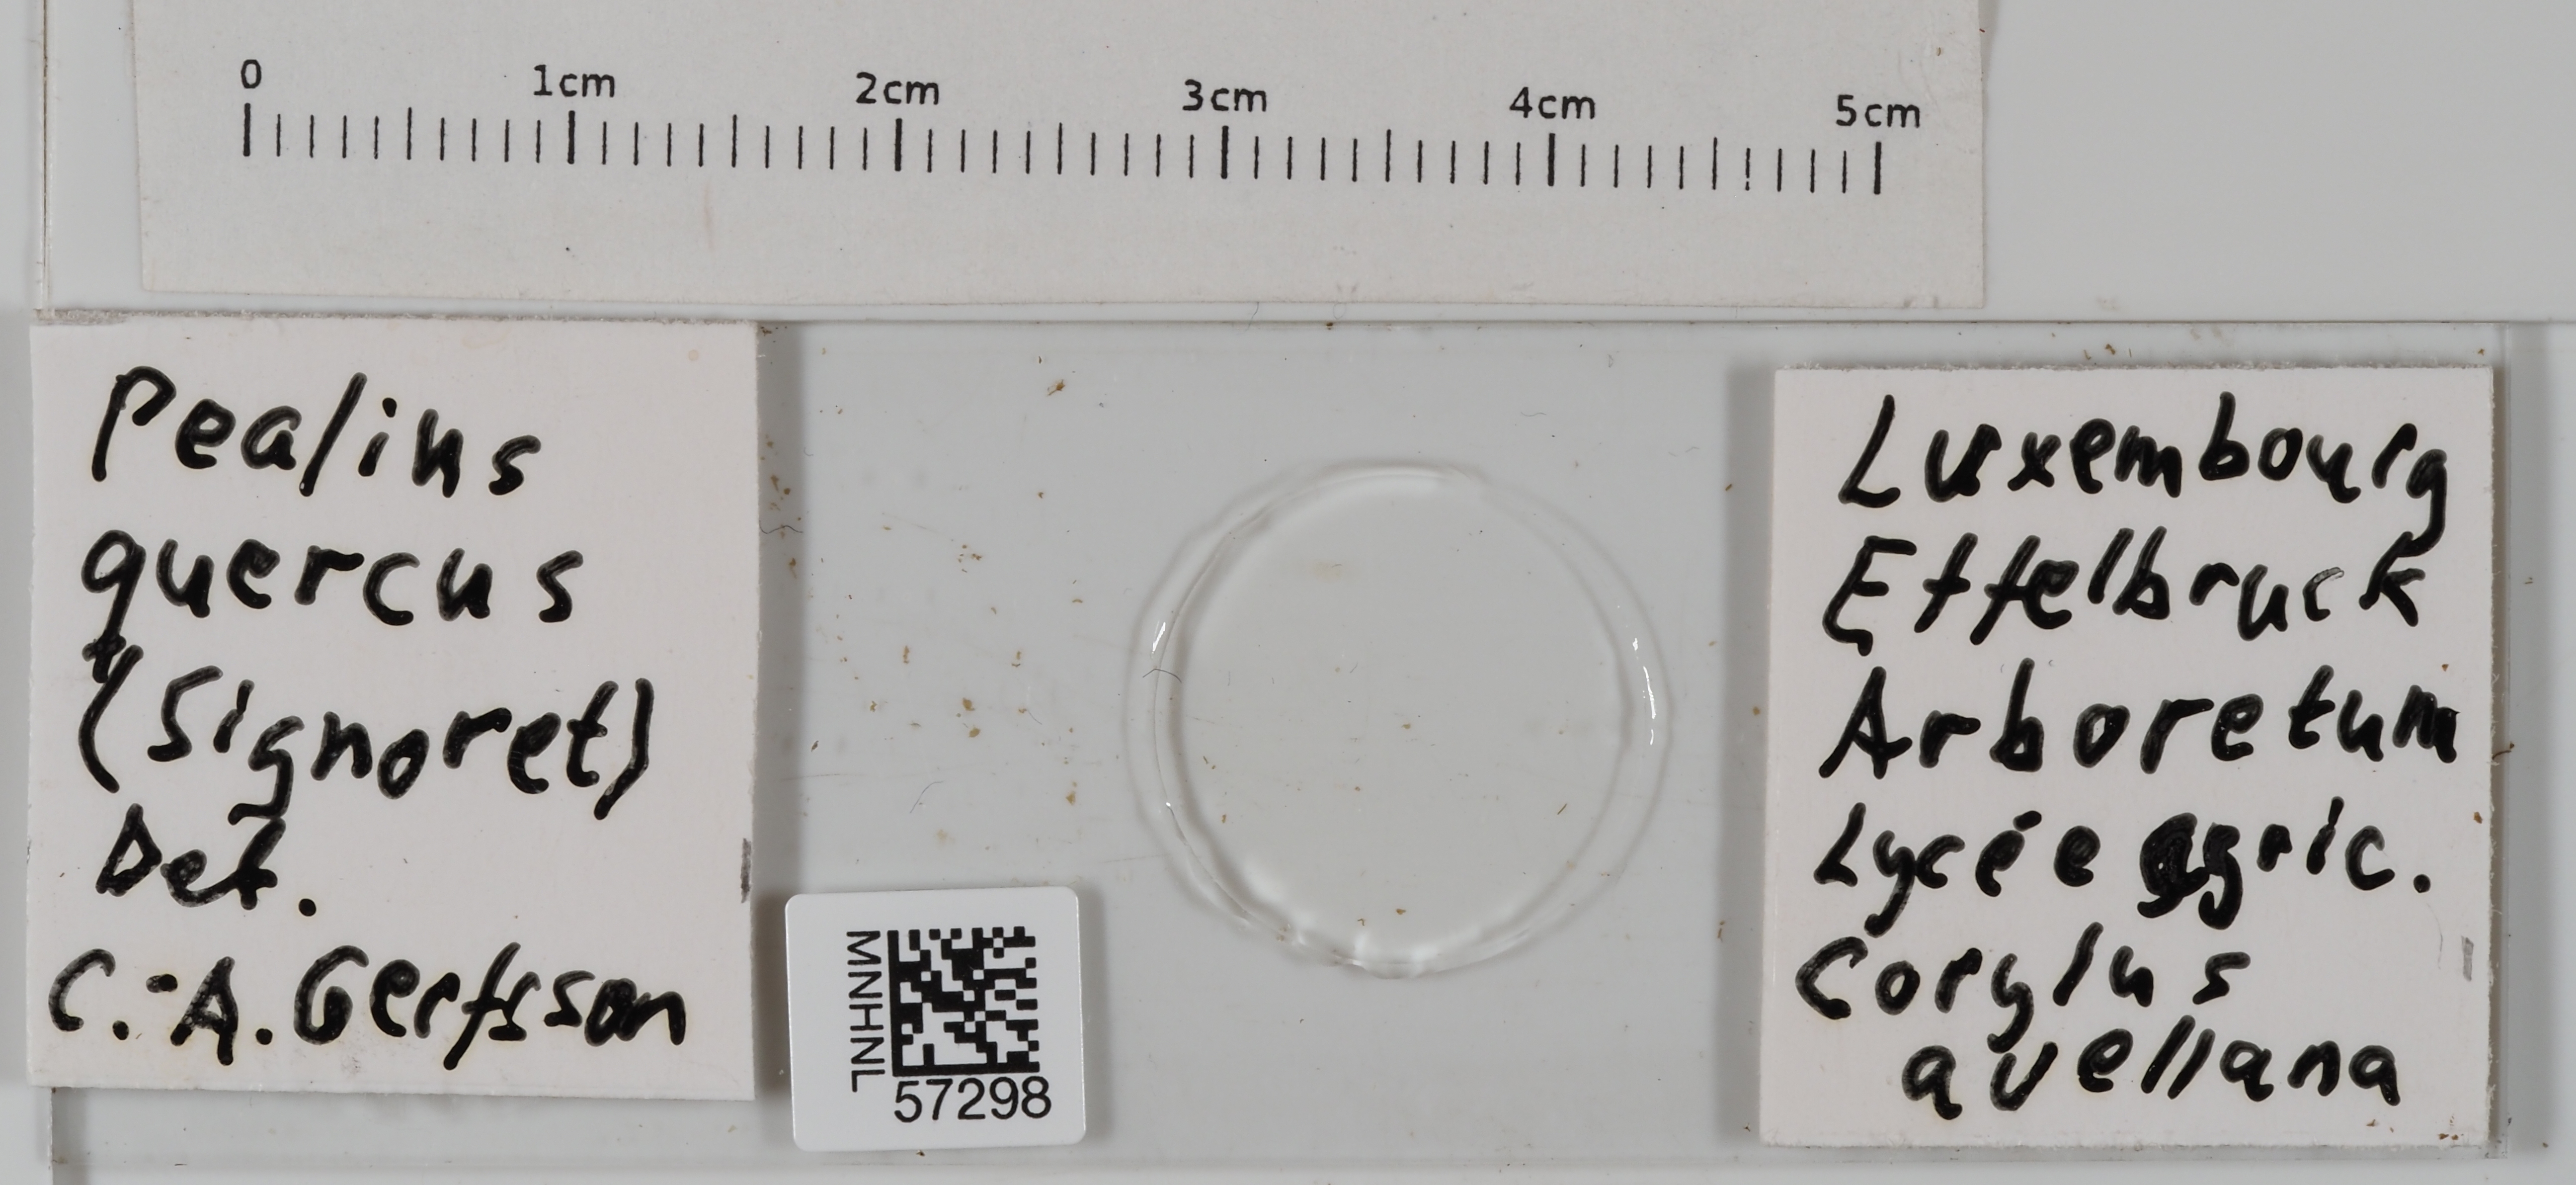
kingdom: Animalia
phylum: Arthropoda
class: Insecta
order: Hemiptera
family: Aleyrodidae
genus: Pealius
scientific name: Pealius quercus
